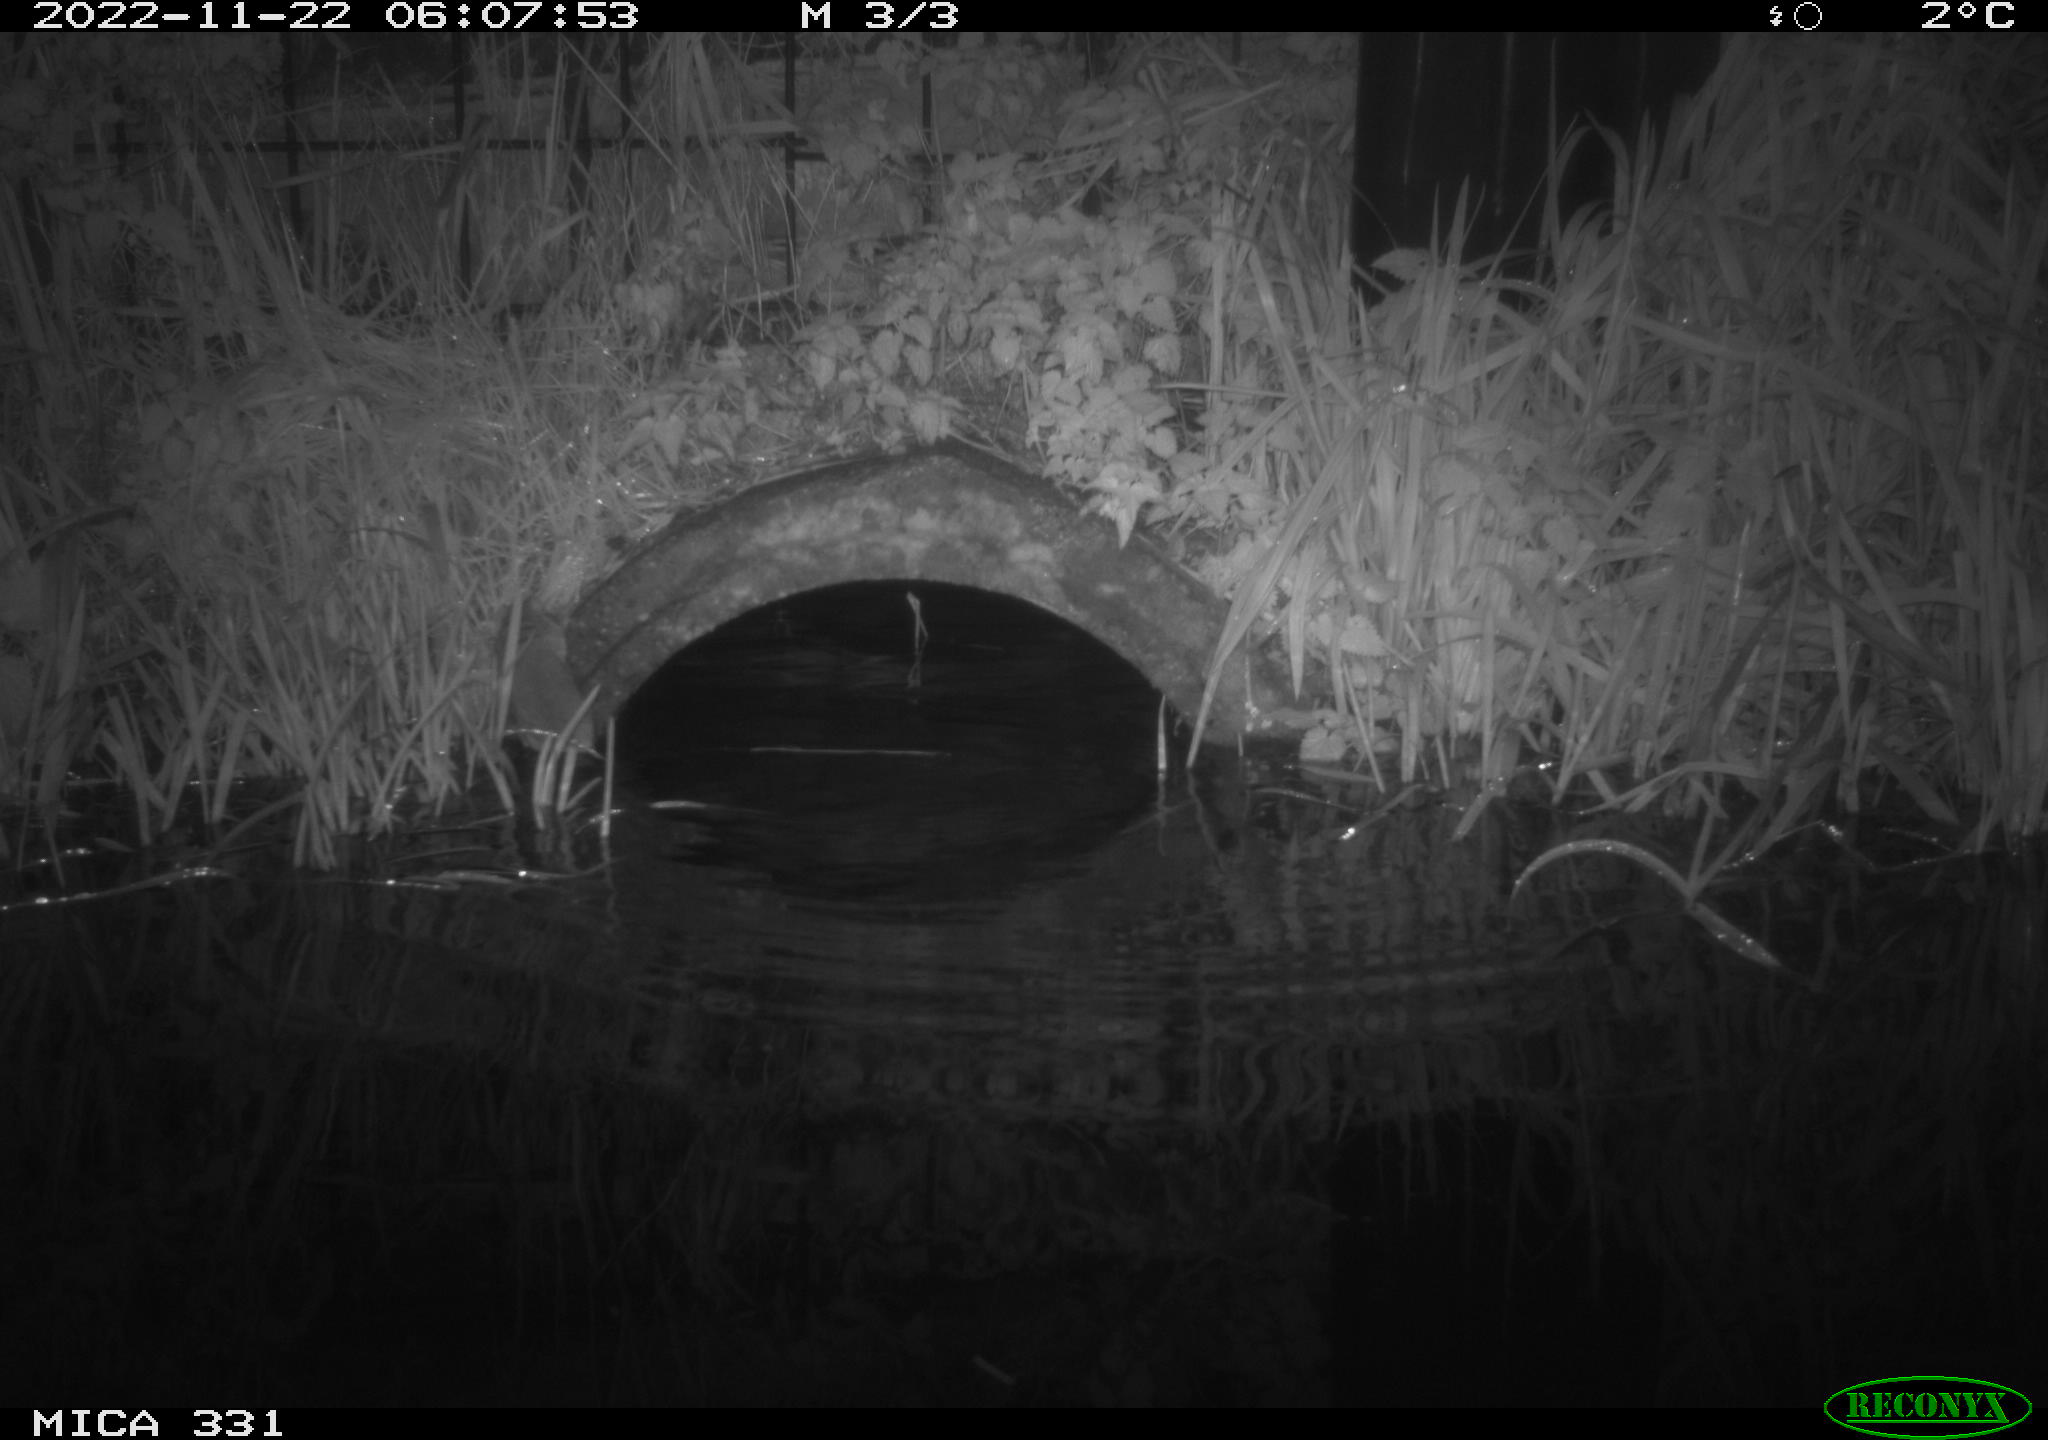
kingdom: Animalia
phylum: Chordata
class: Mammalia
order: Rodentia
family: Muridae
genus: Rattus
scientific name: Rattus norvegicus
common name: Brown rat
